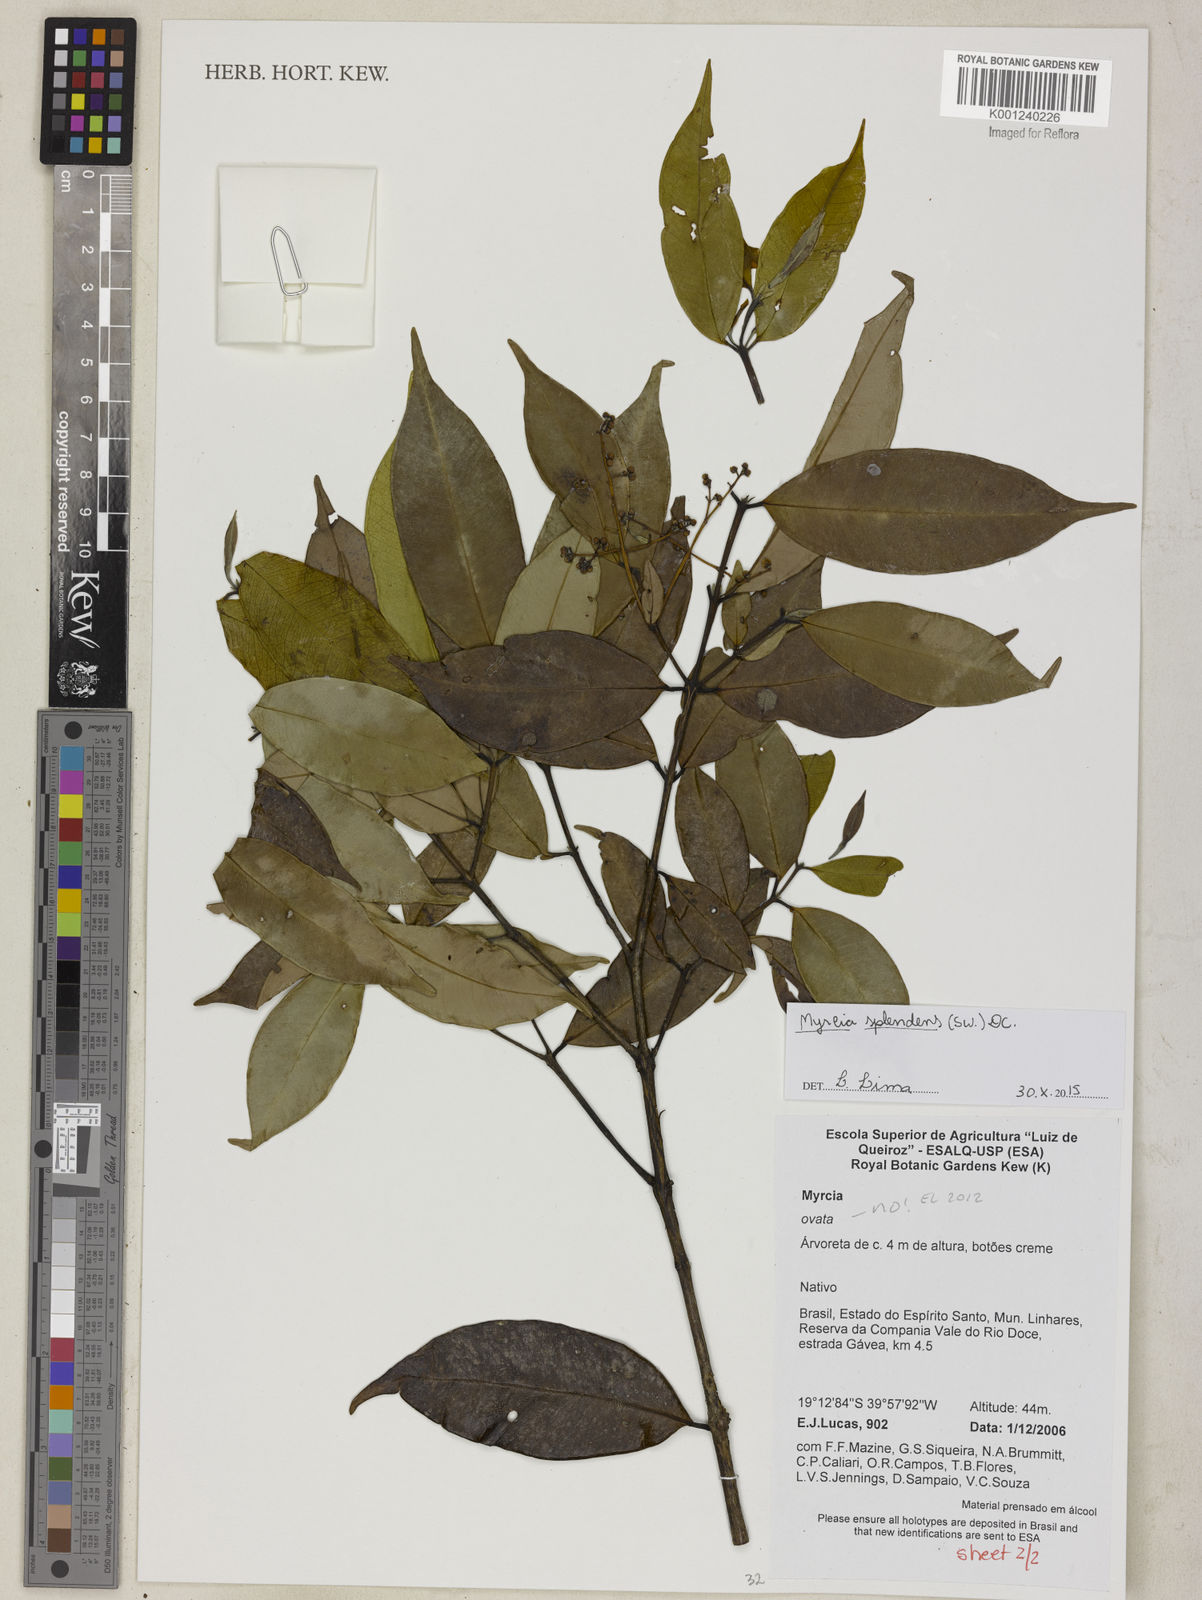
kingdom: Plantae
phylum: Tracheophyta
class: Magnoliopsida
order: Myrtales
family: Myrtaceae
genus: Myrcia
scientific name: Myrcia splendens
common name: Surinam cherry
